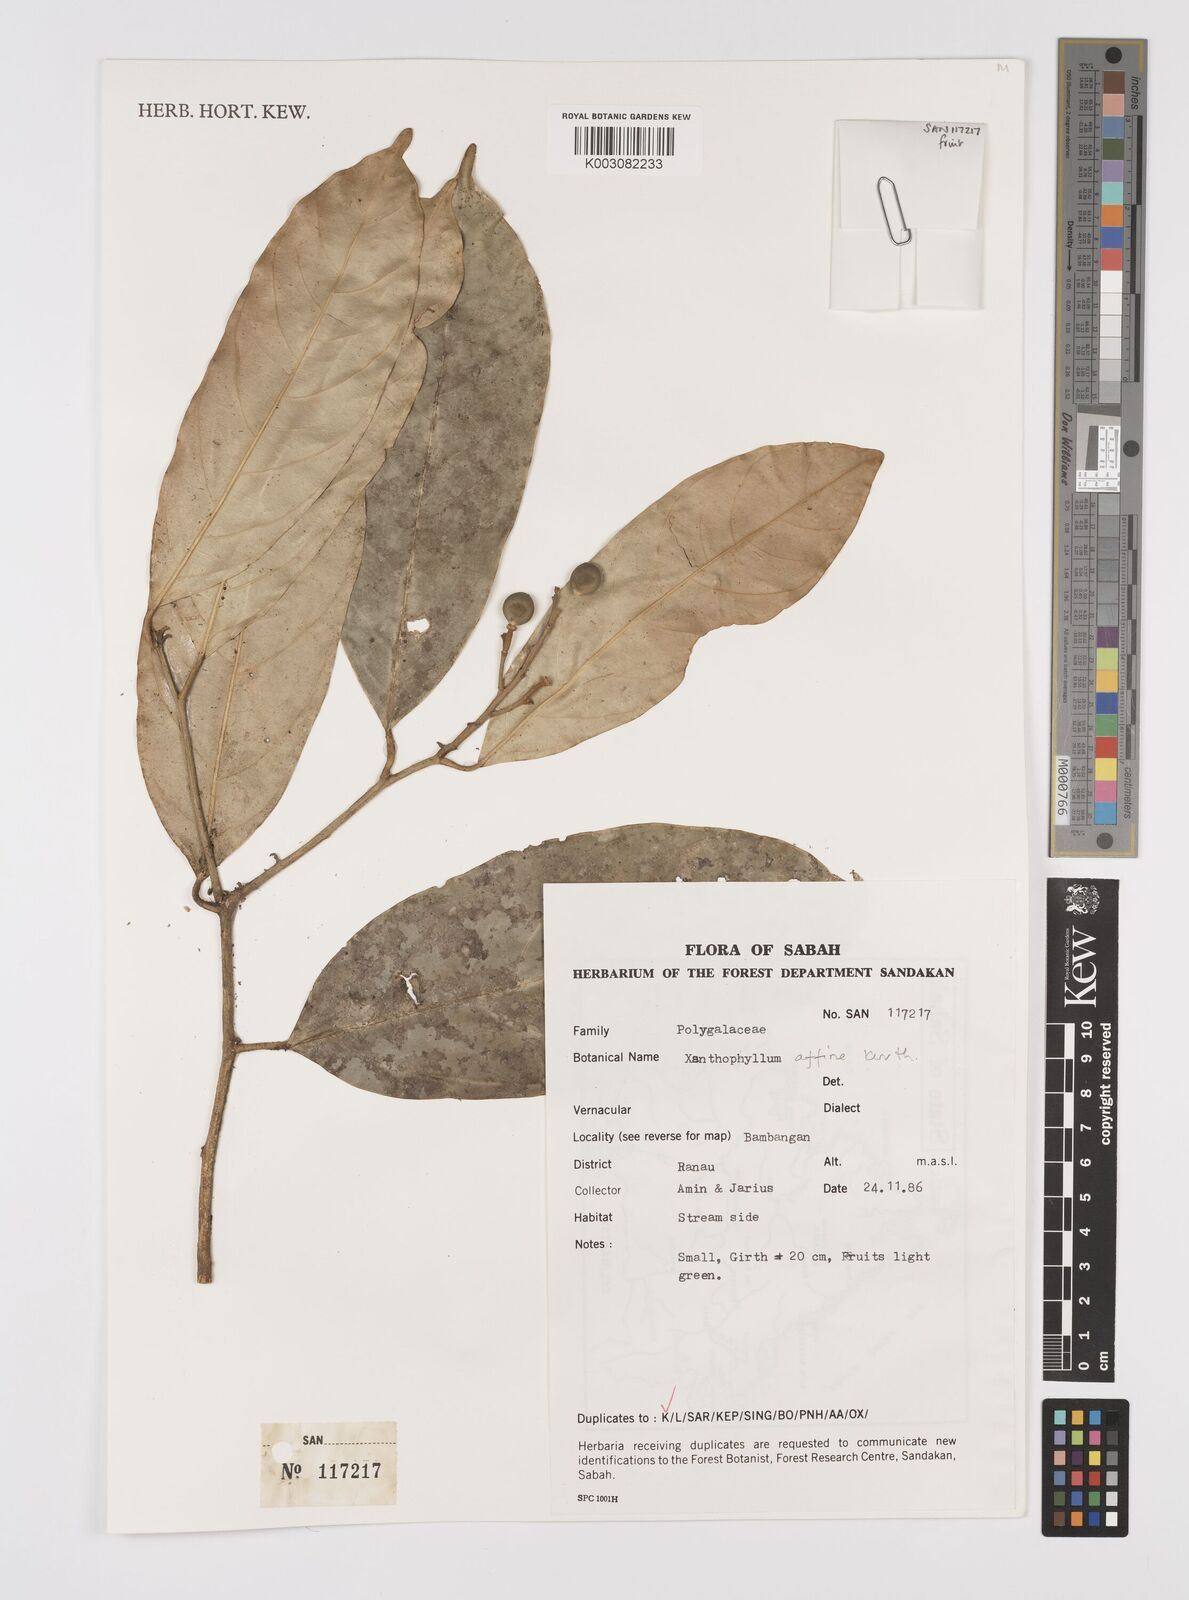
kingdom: Plantae
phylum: Tracheophyta
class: Magnoliopsida
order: Fabales
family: Polygalaceae
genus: Xanthophyllum
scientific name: Xanthophyllum flavescens
